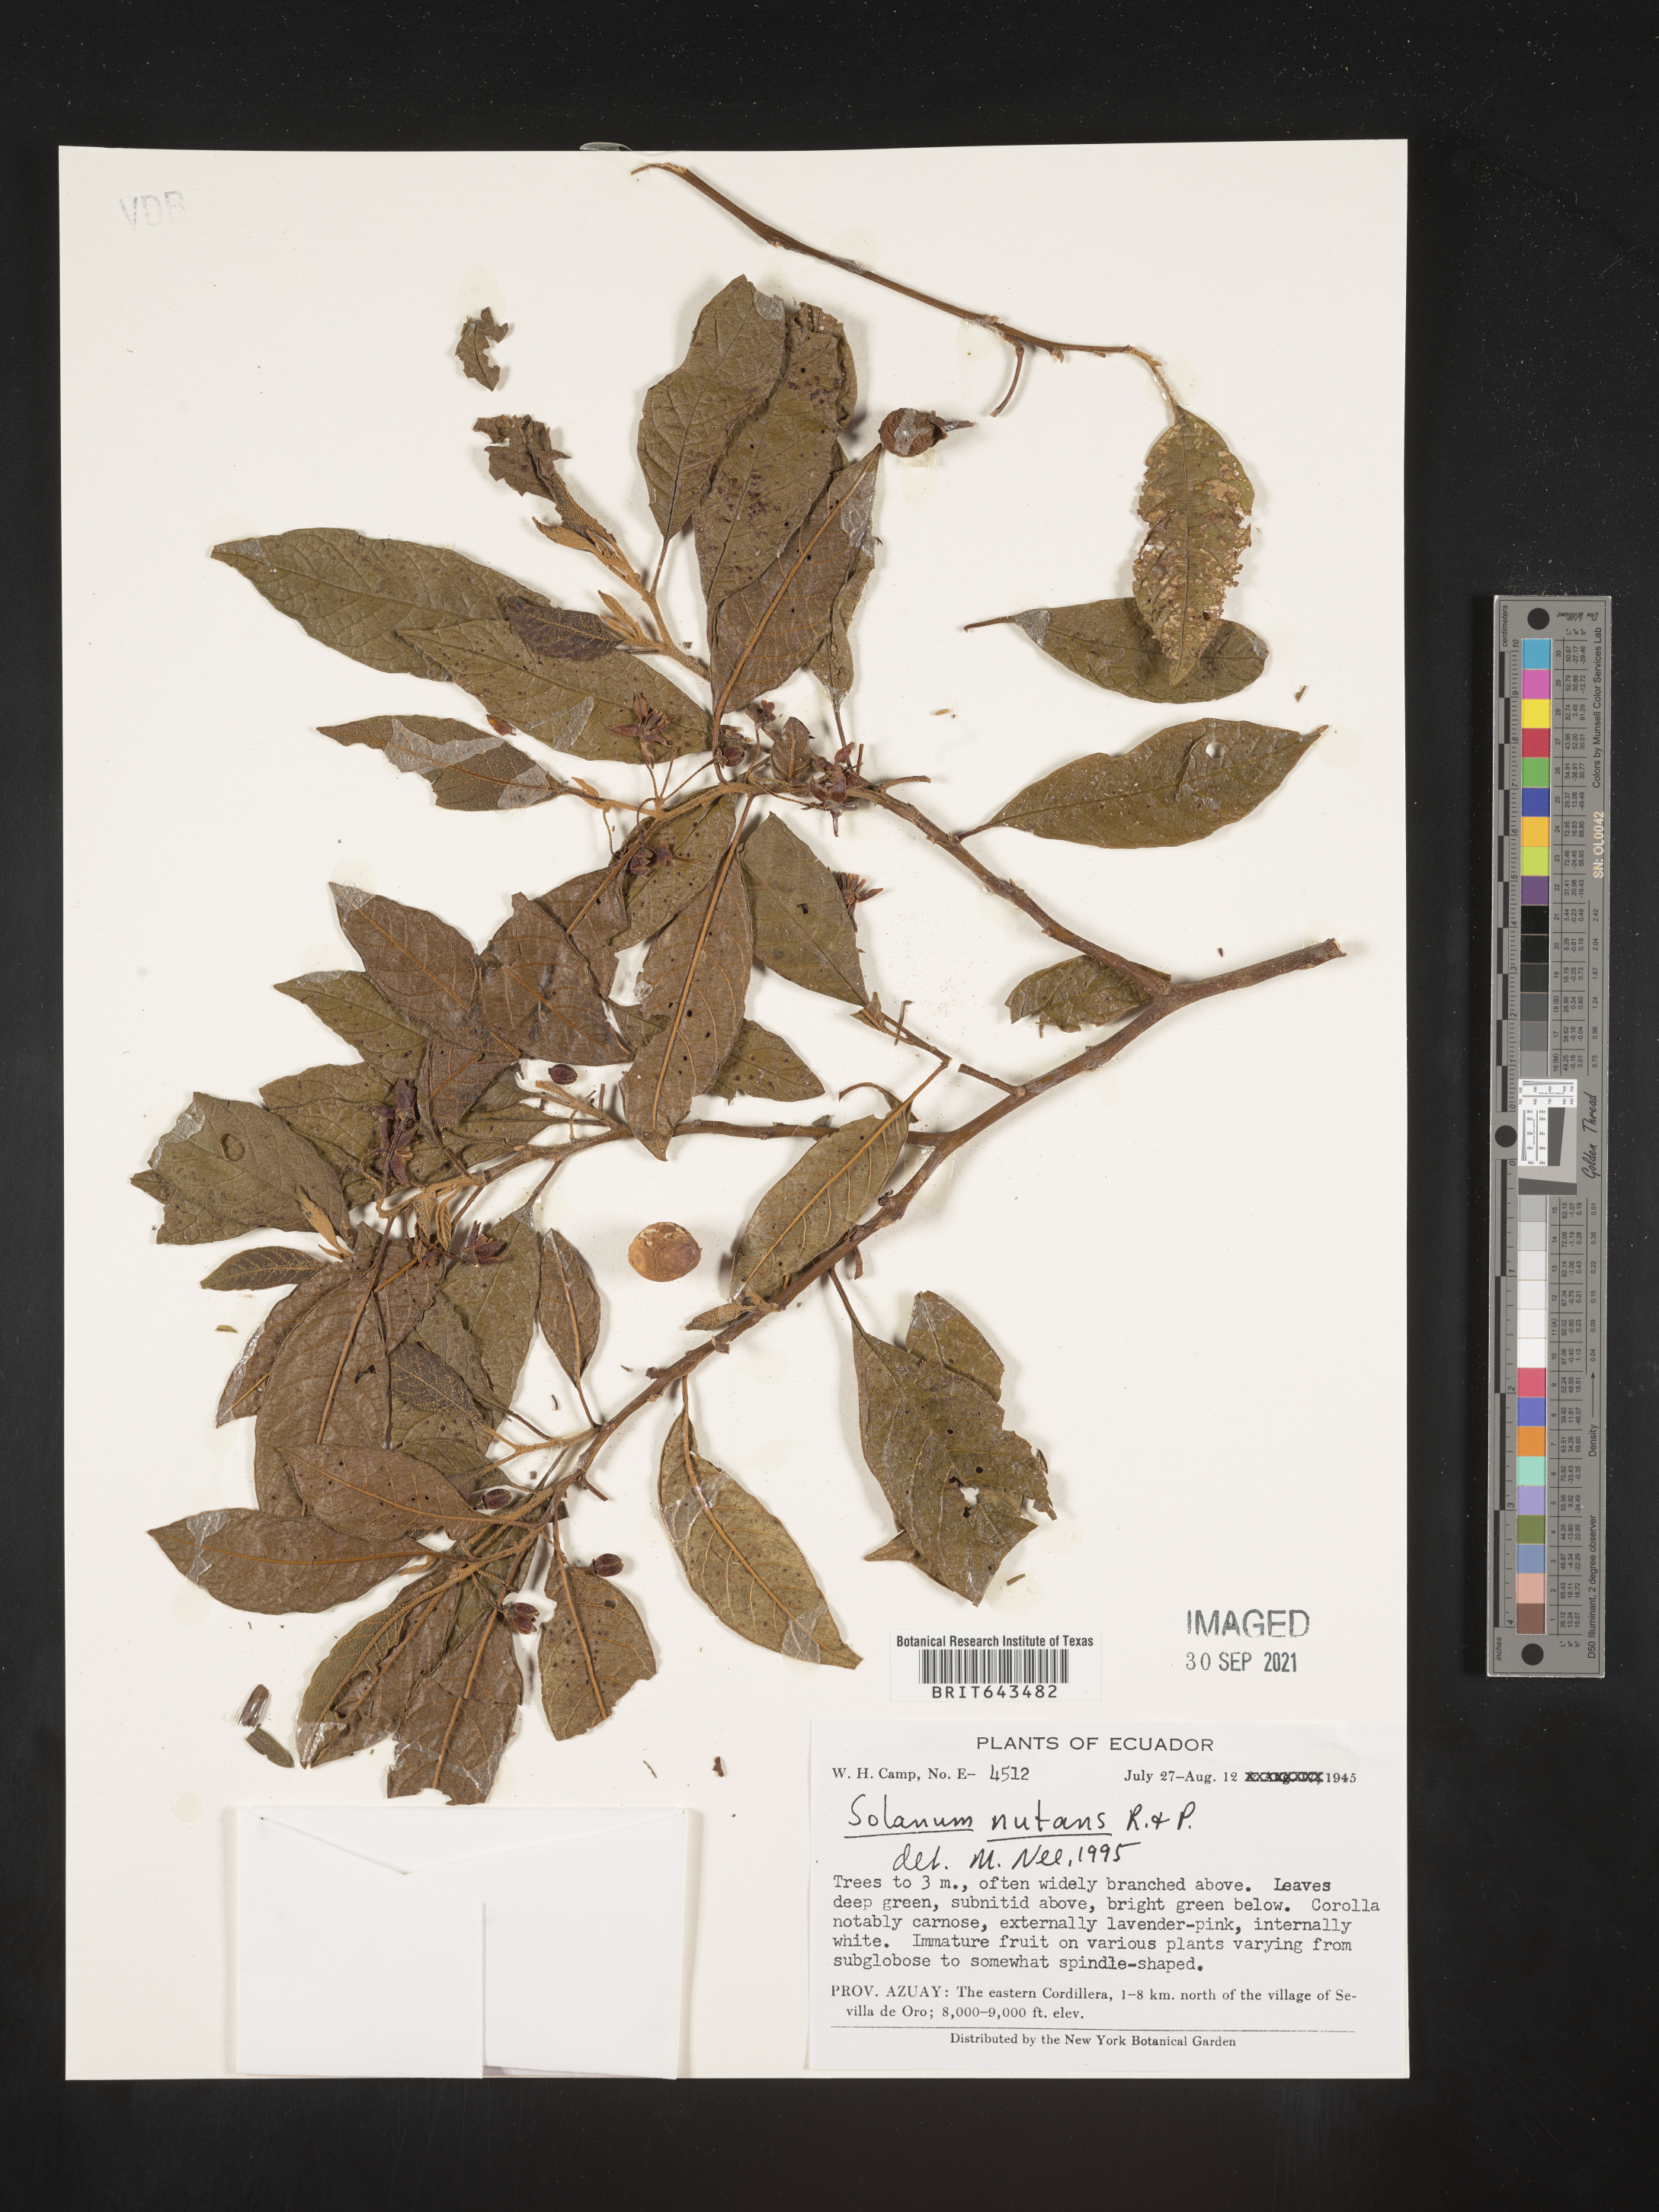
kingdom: Plantae
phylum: Tracheophyta
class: Magnoliopsida
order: Solanales
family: Solanaceae
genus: Solanum
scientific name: Solanum
